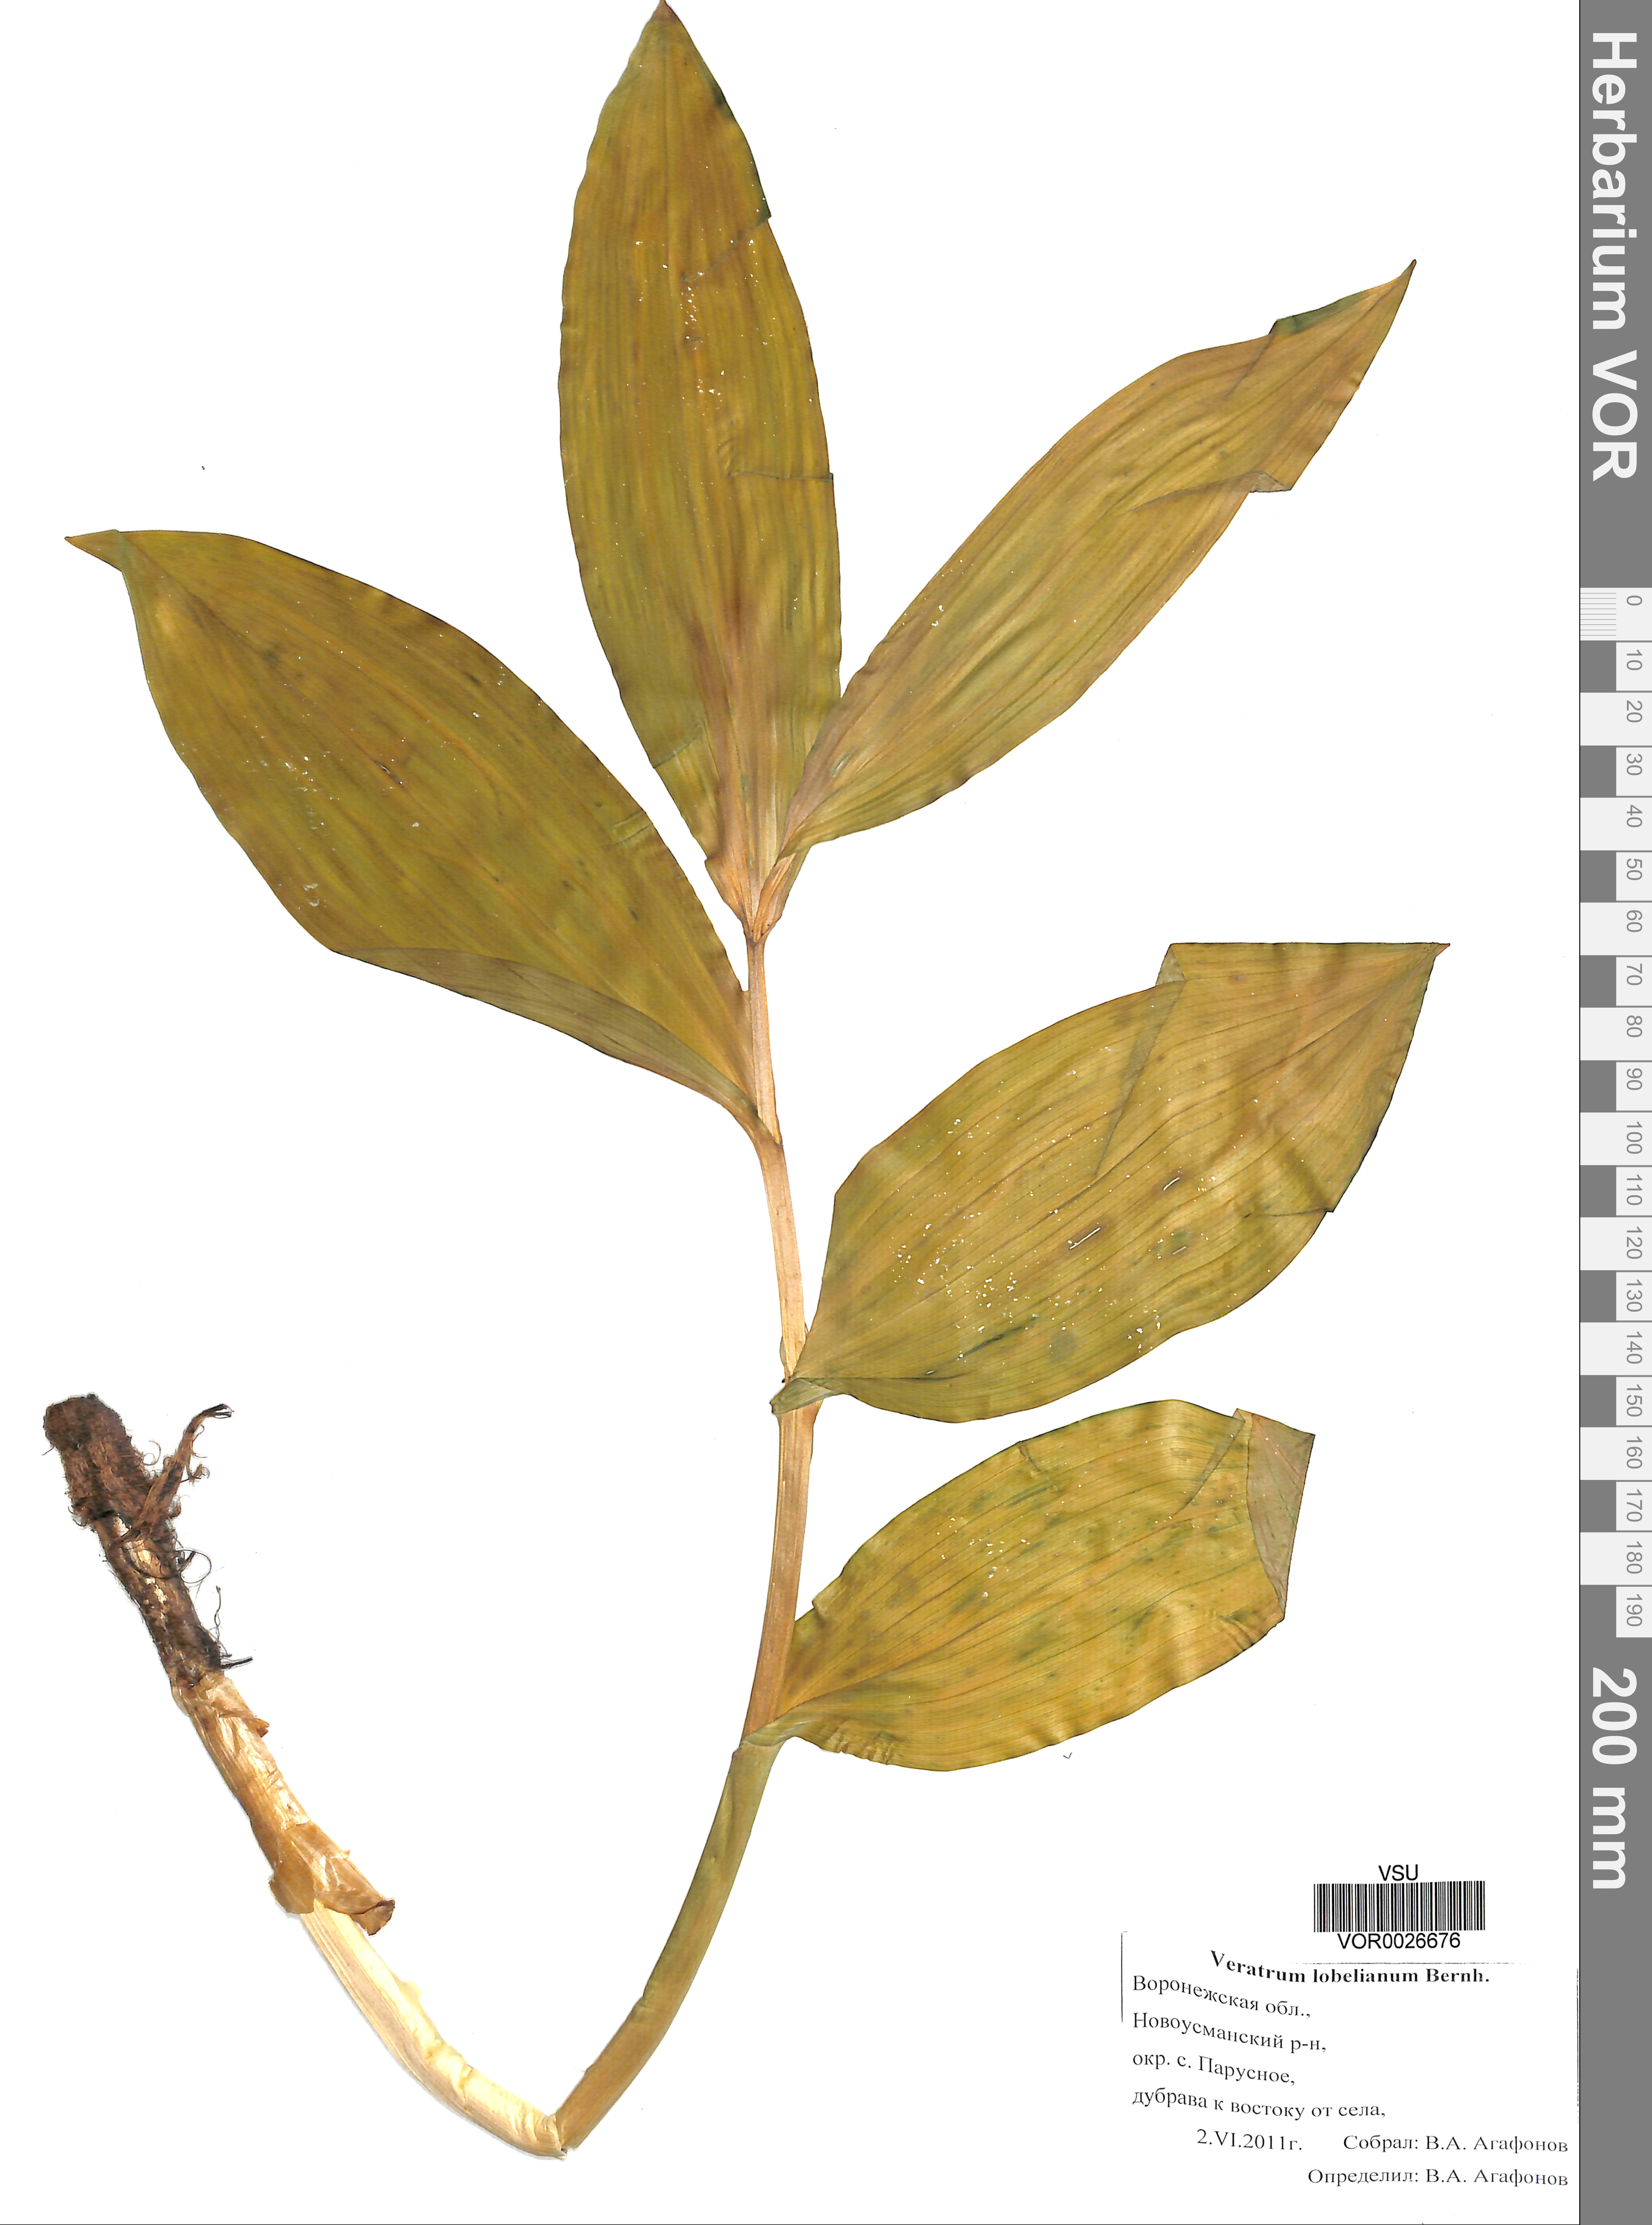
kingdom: Plantae
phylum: Tracheophyta
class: Liliopsida
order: Liliales
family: Melanthiaceae
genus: Veratrum
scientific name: Veratrum lobelianum
